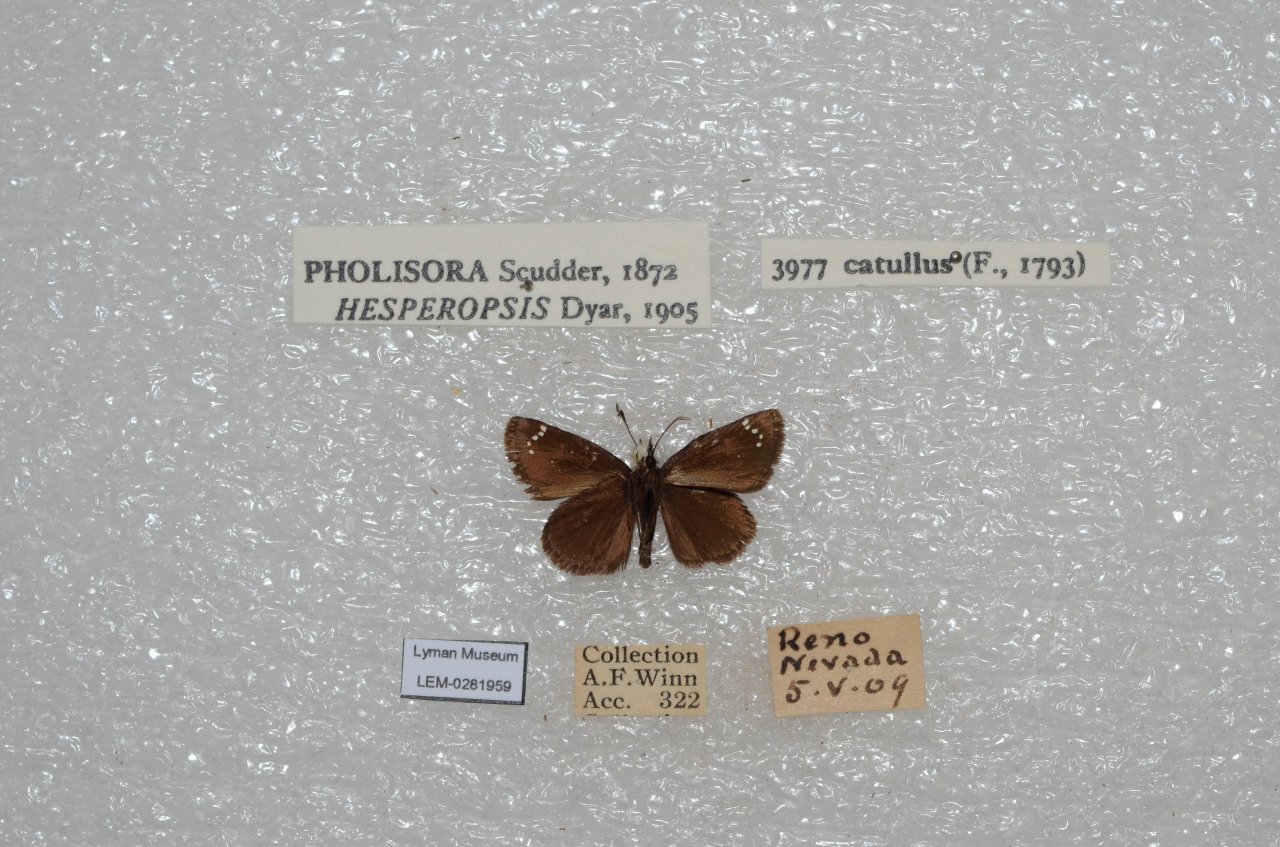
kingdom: Animalia
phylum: Arthropoda
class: Insecta
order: Lepidoptera
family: Hesperiidae
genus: Pholisora
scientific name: Pholisora catullus
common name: Common Sootywing
